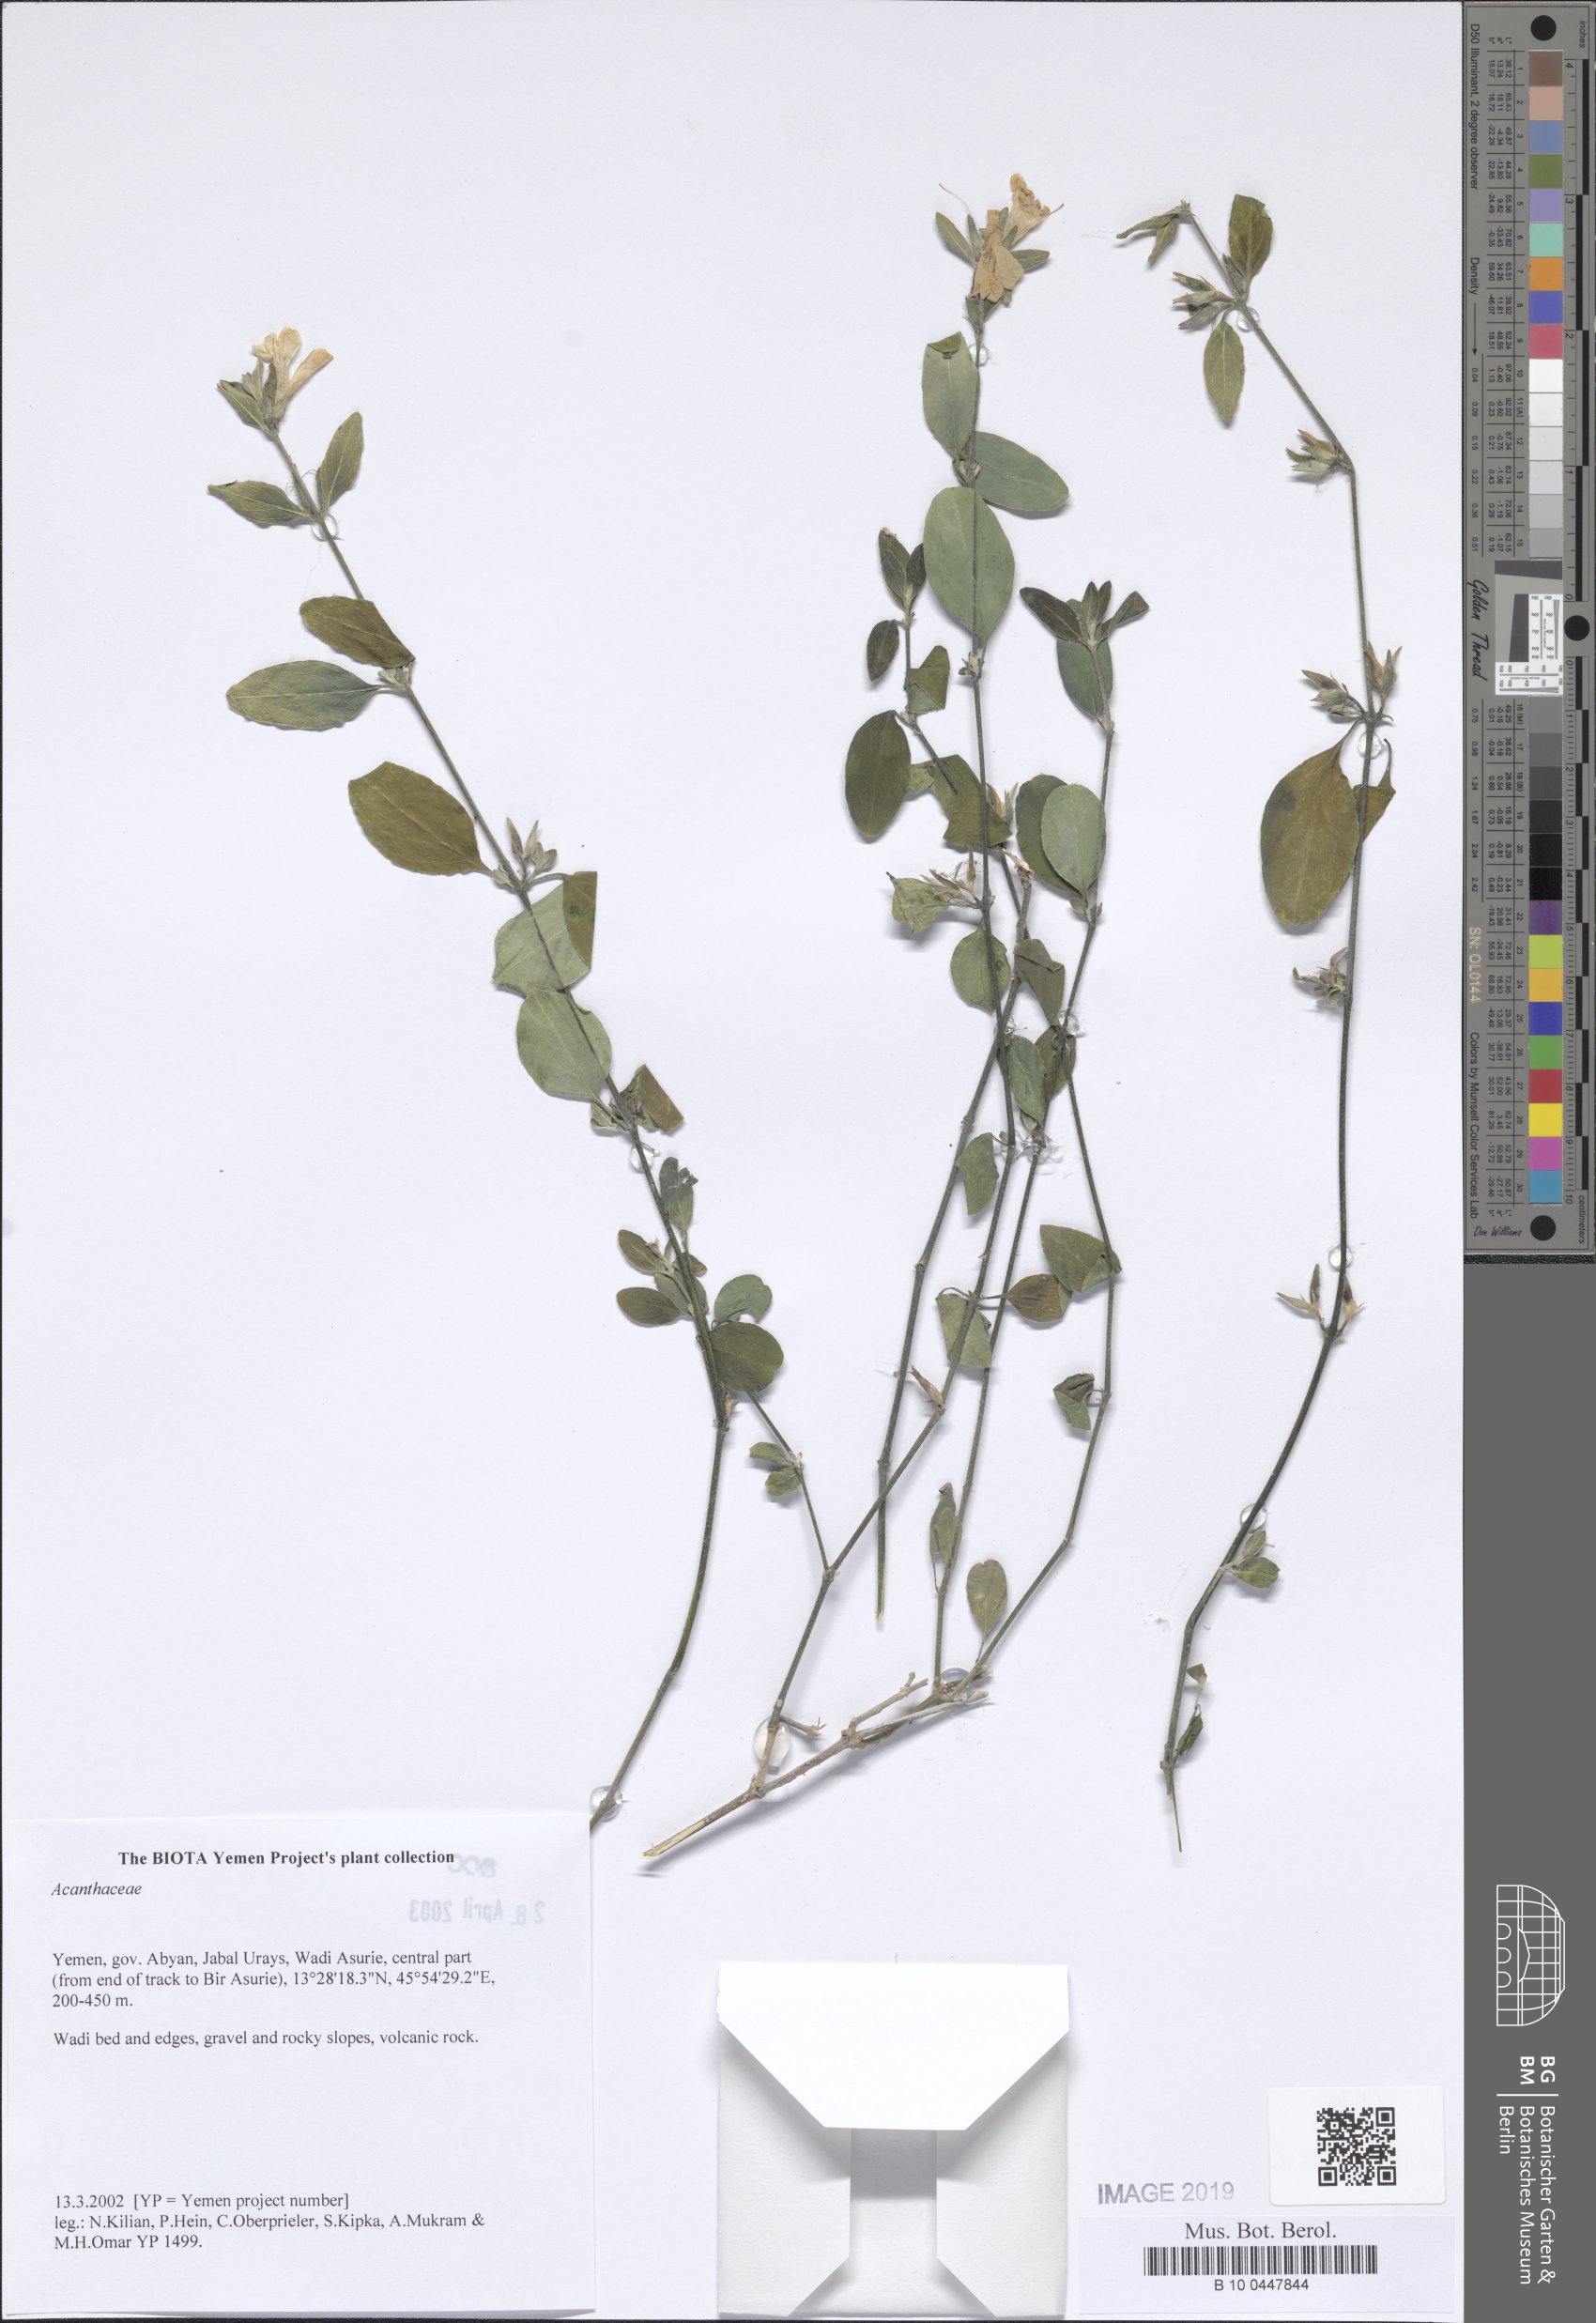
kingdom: Plantae
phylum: Tracheophyta
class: Magnoliopsida
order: Lamiales
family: Acanthaceae
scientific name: Acanthaceae
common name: Acanthaceae
